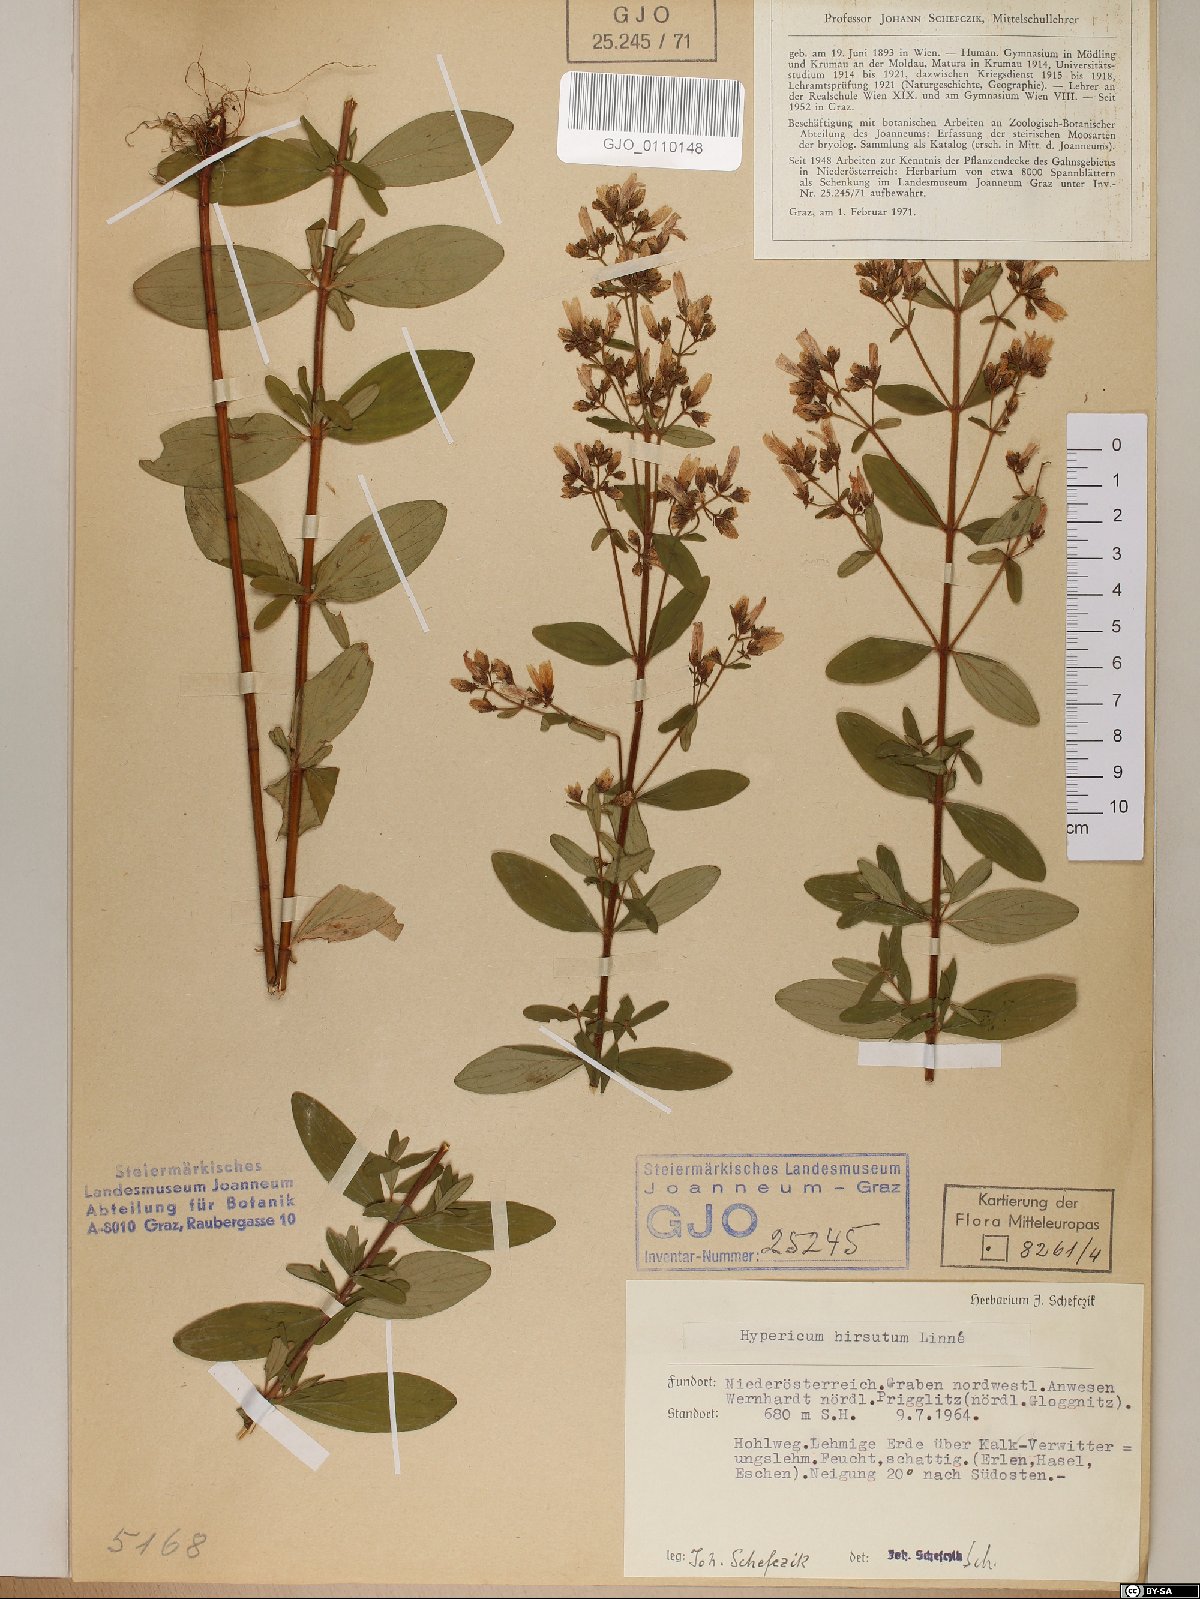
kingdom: Plantae
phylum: Tracheophyta
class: Magnoliopsida
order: Malpighiales
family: Hypericaceae
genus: Hypericum
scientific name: Hypericum hirsutum
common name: Hairy st. john's-wort
